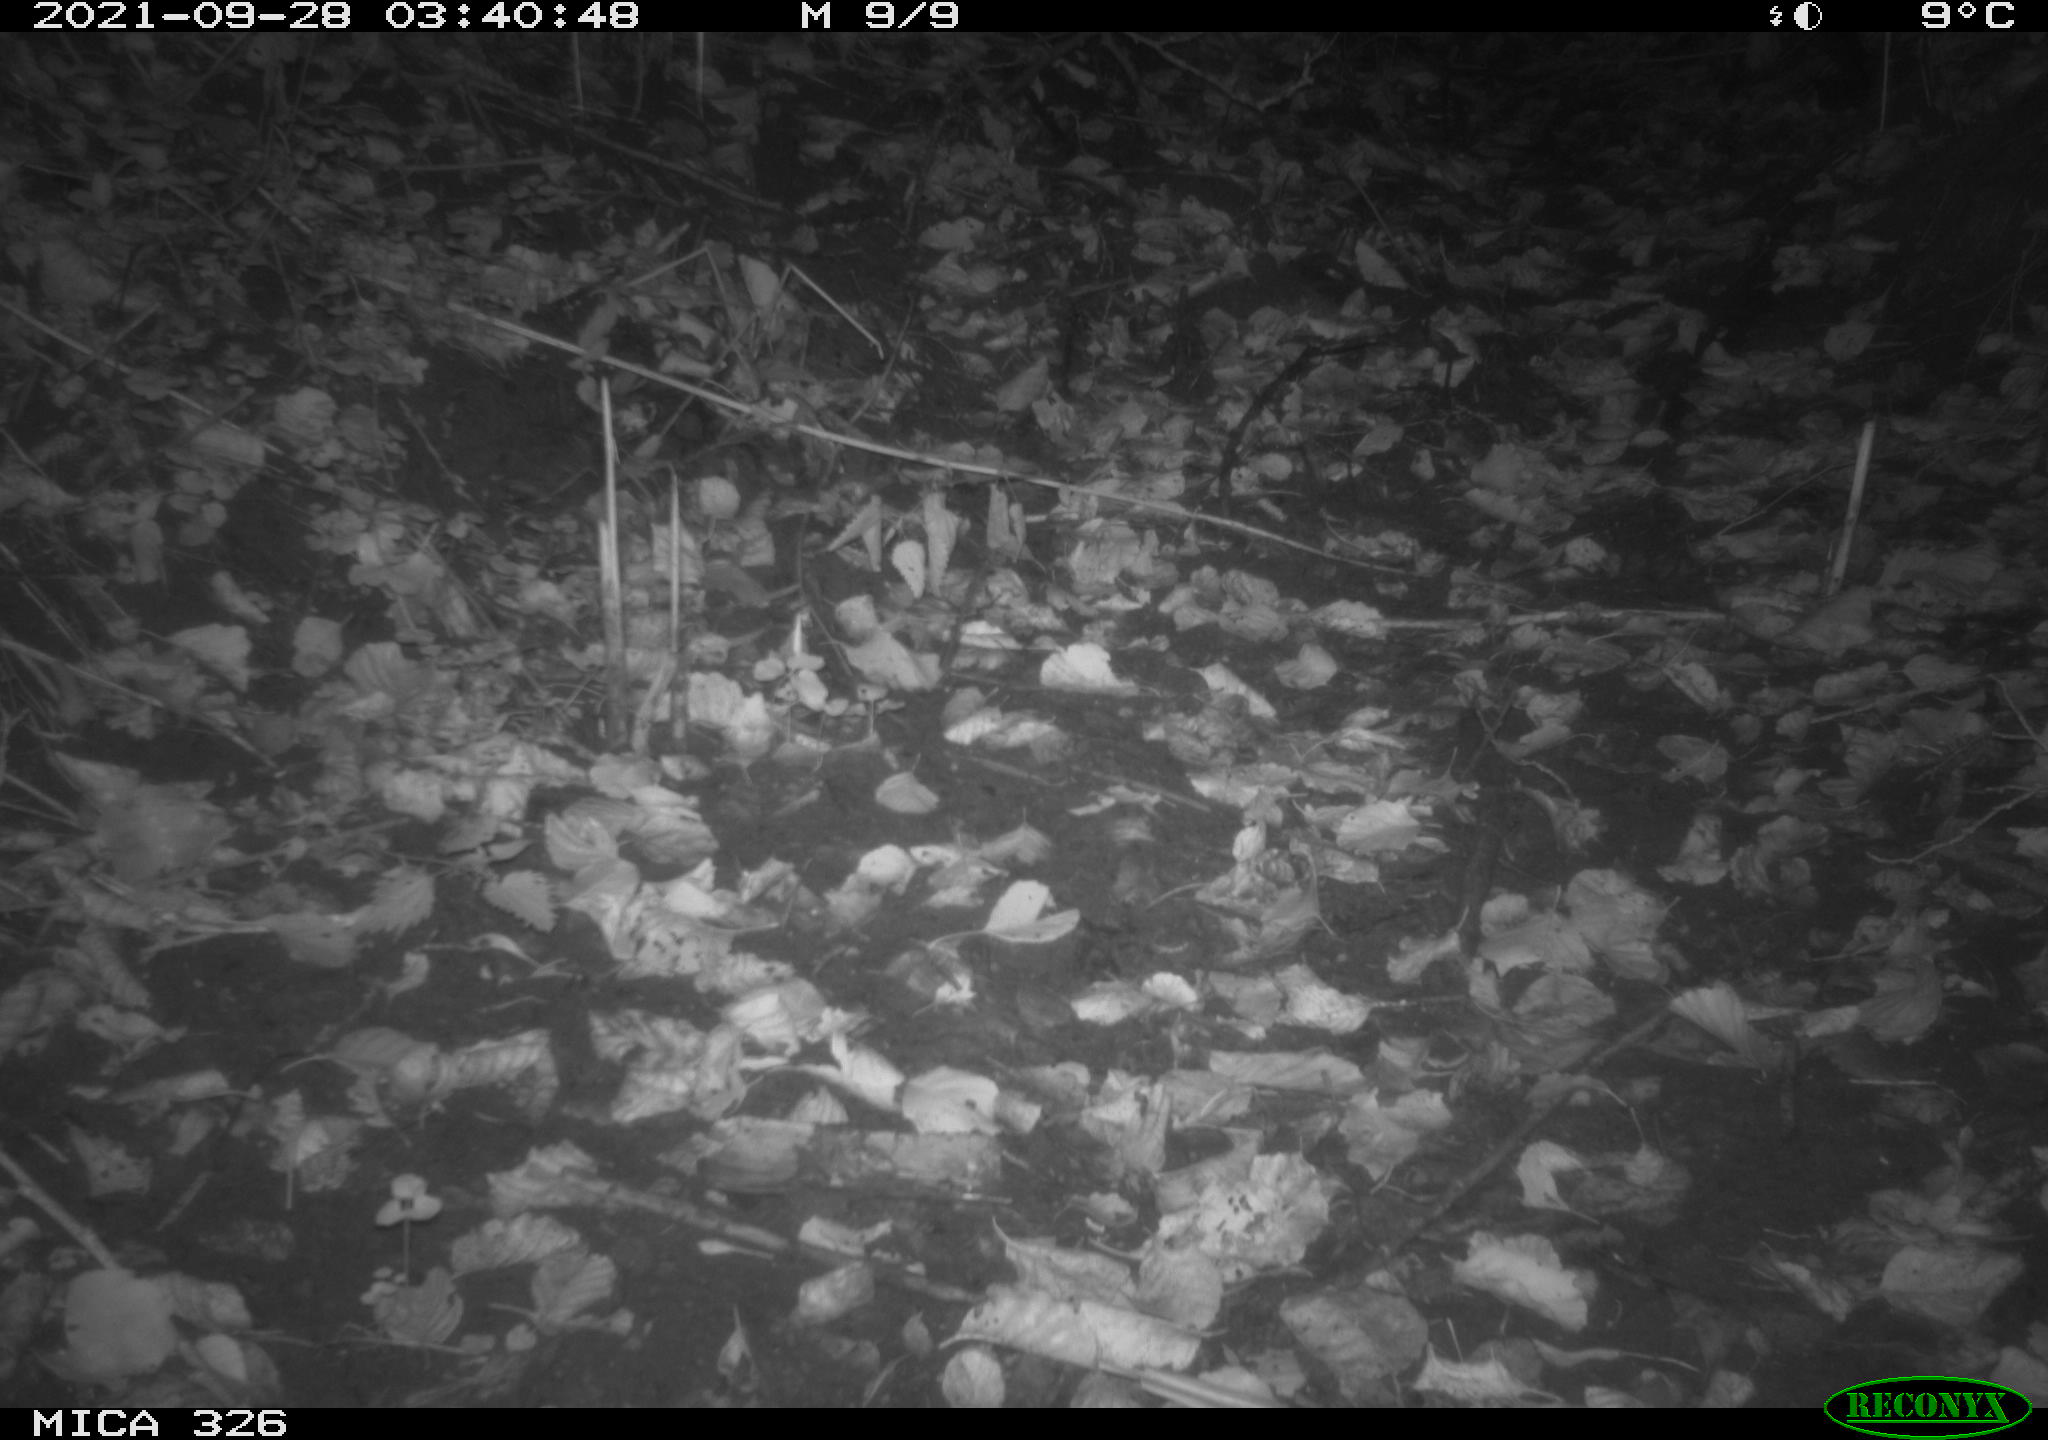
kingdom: Animalia
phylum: Chordata
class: Mammalia
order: Rodentia
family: Muridae
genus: Rattus
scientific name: Rattus norvegicus
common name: Brown rat
